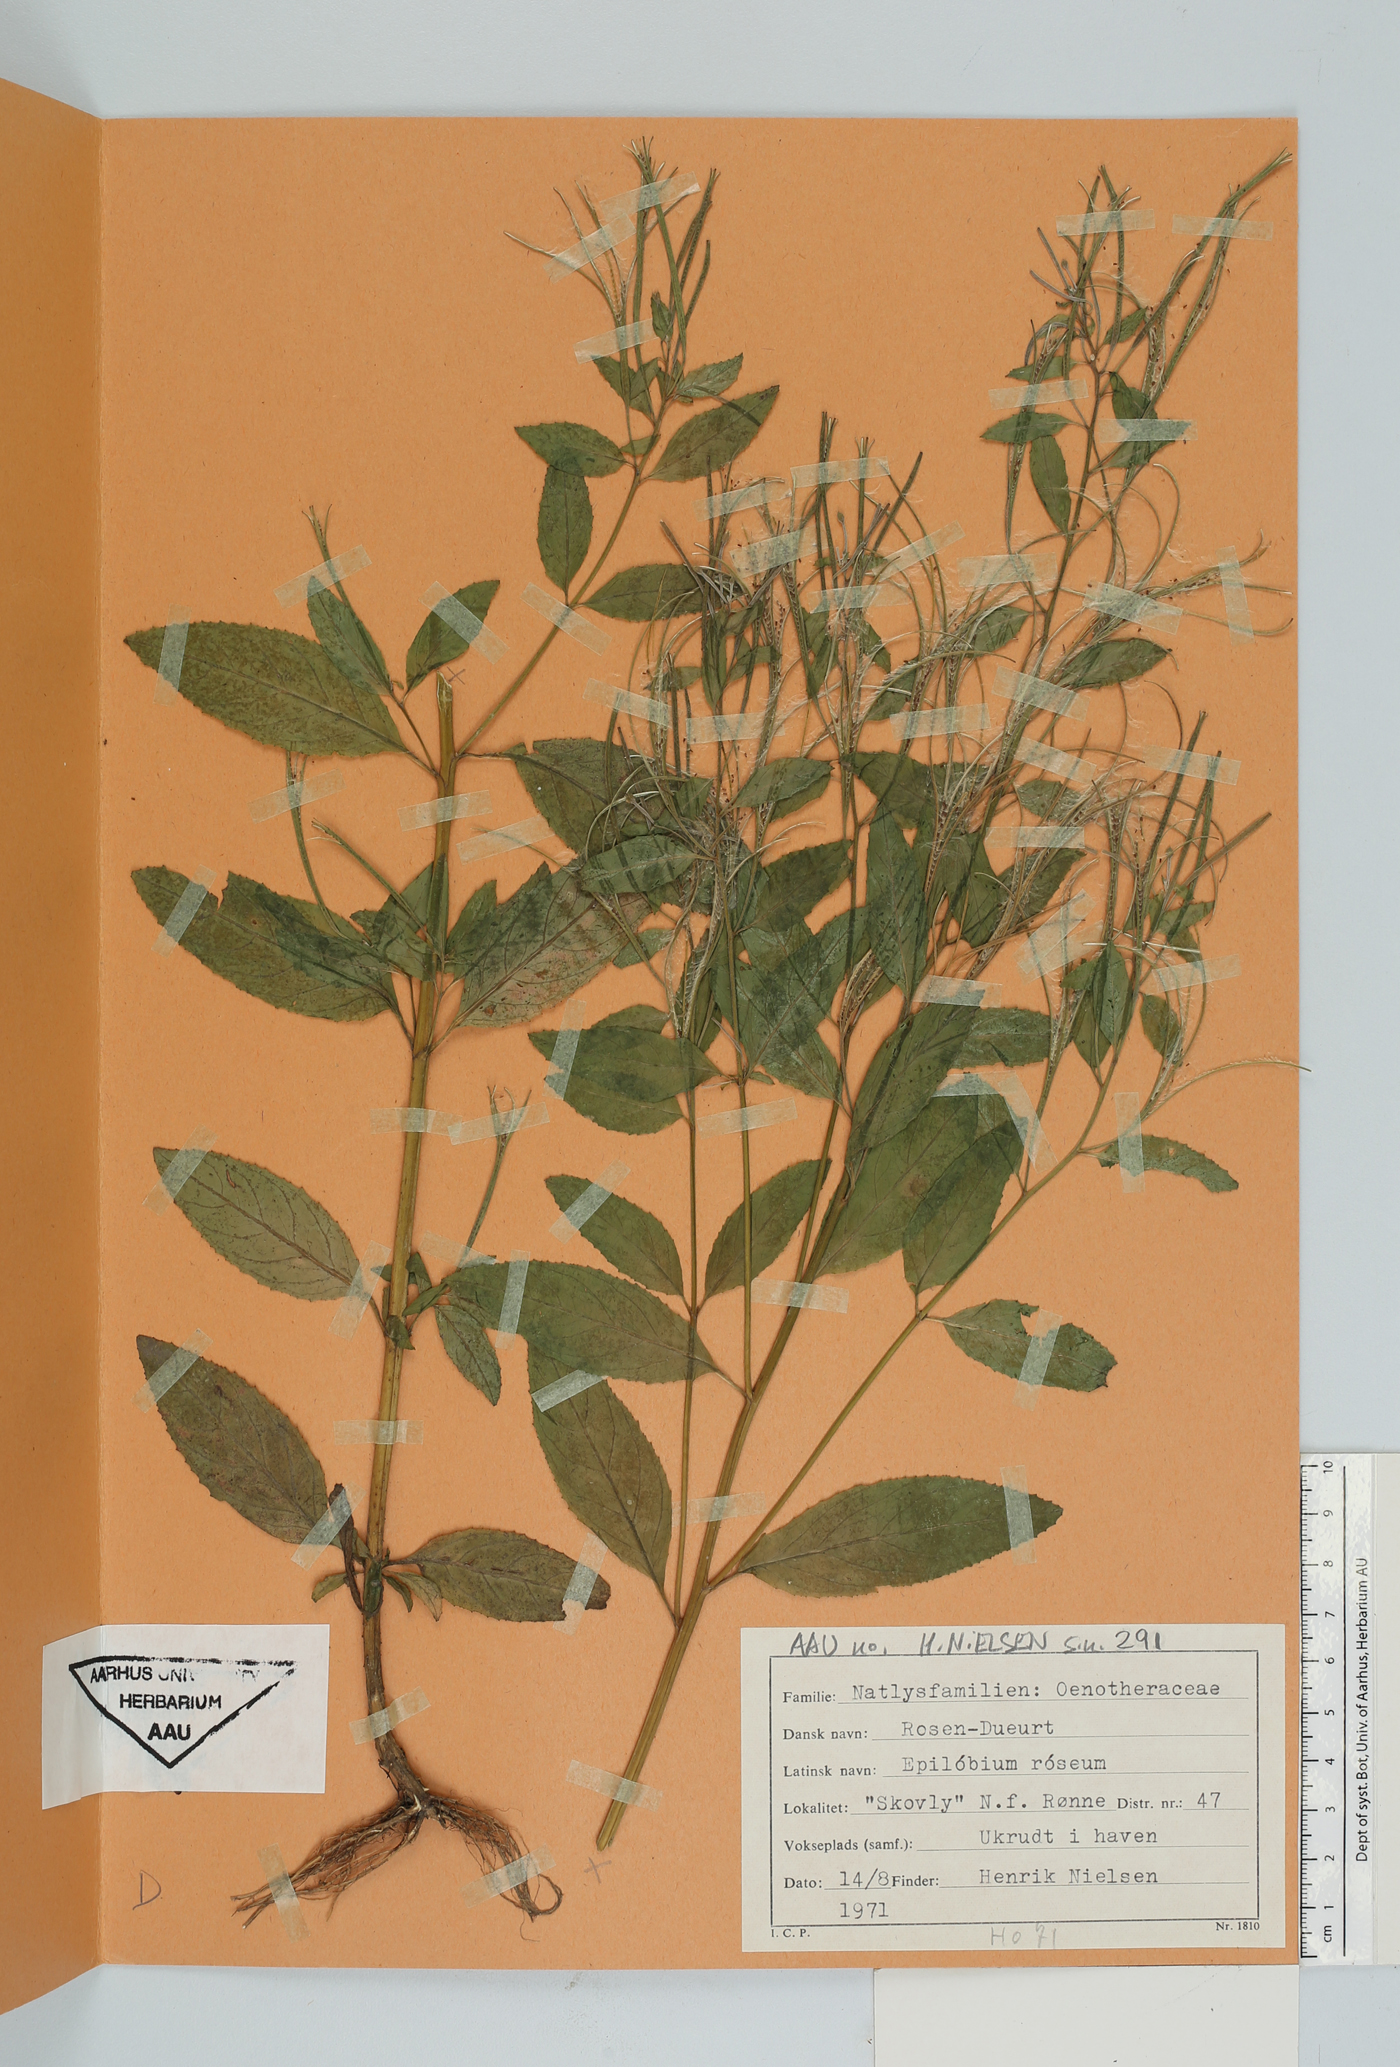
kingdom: Plantae
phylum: Tracheophyta
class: Magnoliopsida
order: Myrtales
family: Onagraceae
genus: Epilobium
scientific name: Epilobium roseum
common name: Pale willowherb
